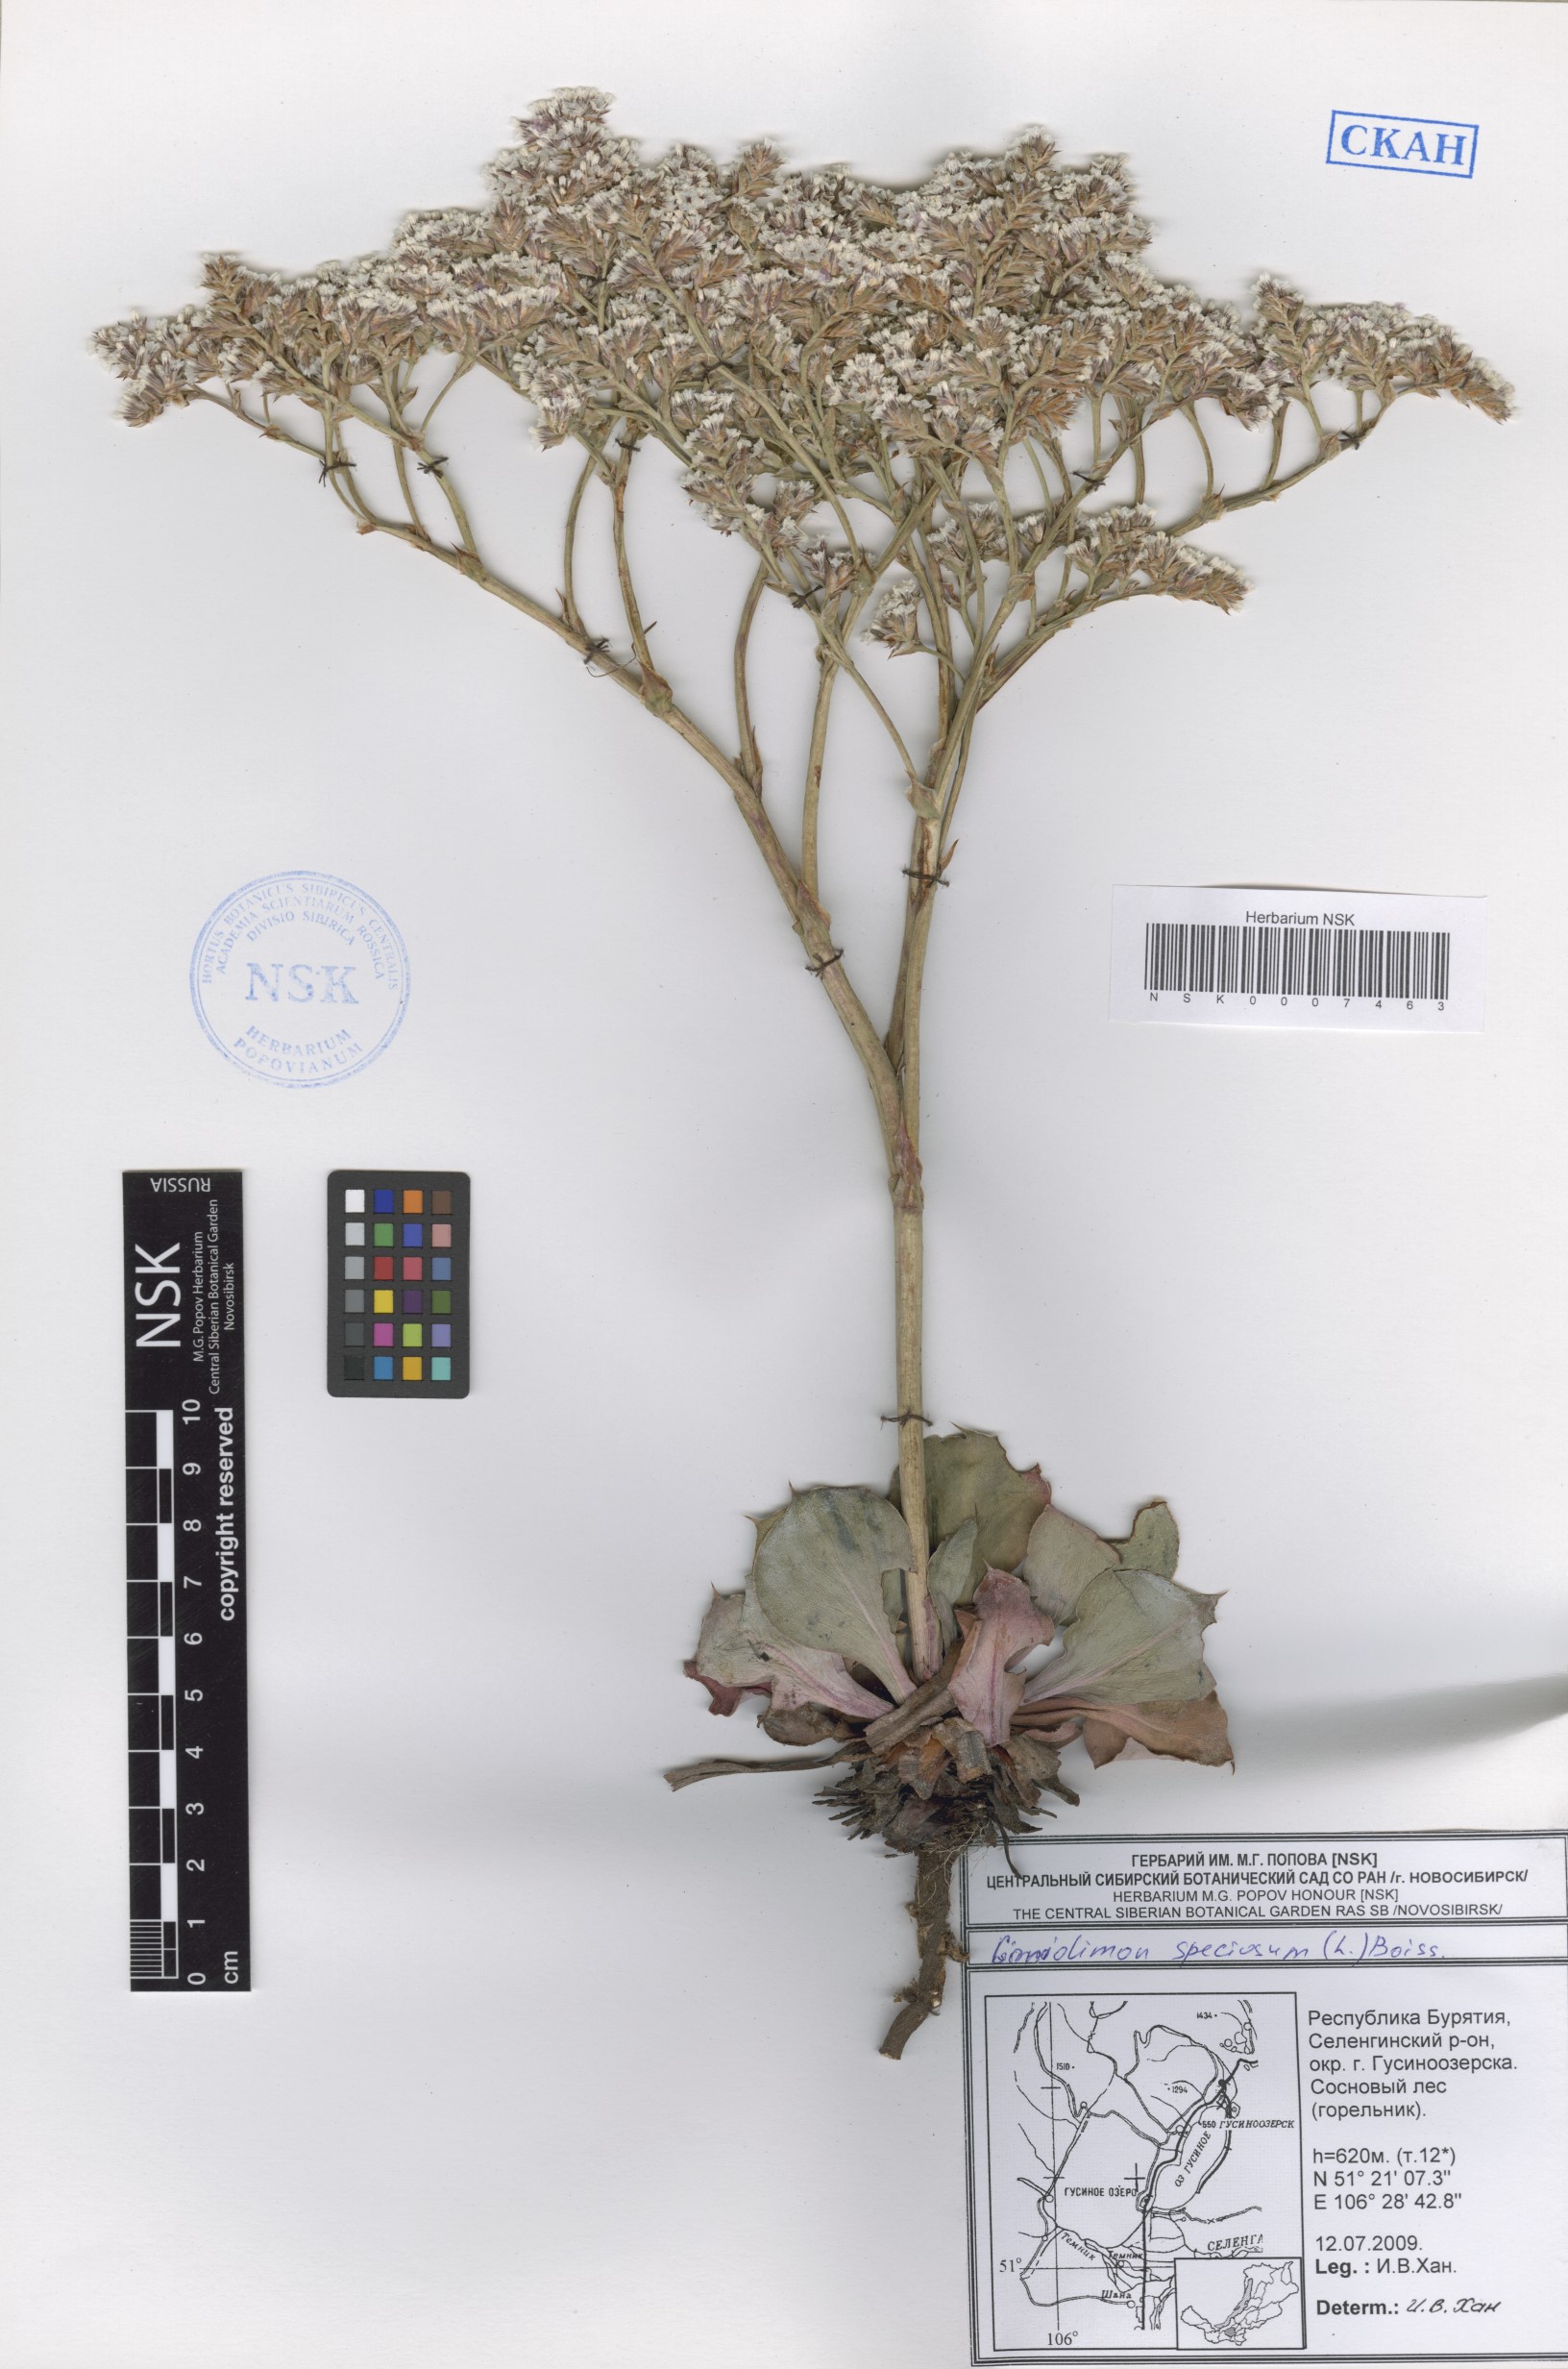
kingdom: Plantae
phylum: Tracheophyta
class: Magnoliopsida
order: Caryophyllales
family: Plumbaginaceae
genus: Goniolimon
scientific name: Goniolimon speciosum
